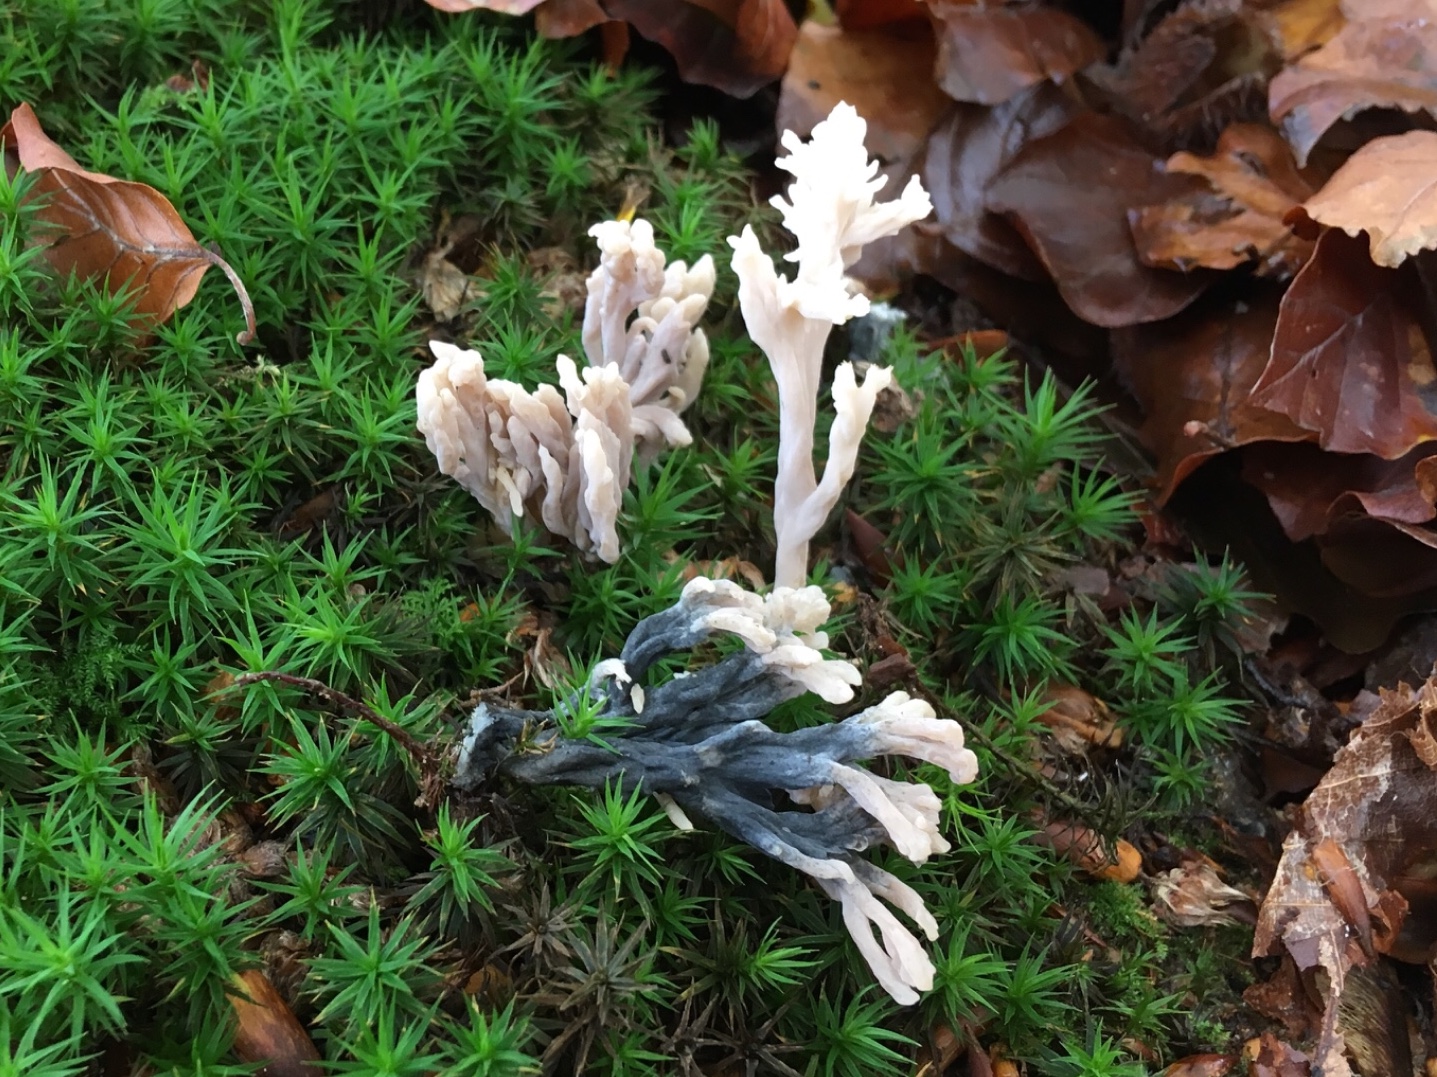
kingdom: Fungi
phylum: Ascomycota
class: Sordariomycetes
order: Sordariales
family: Helminthosphaeriaceae
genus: Helminthosphaeria
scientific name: Helminthosphaeria clavariarum
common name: trold-svampesnyltekerne
